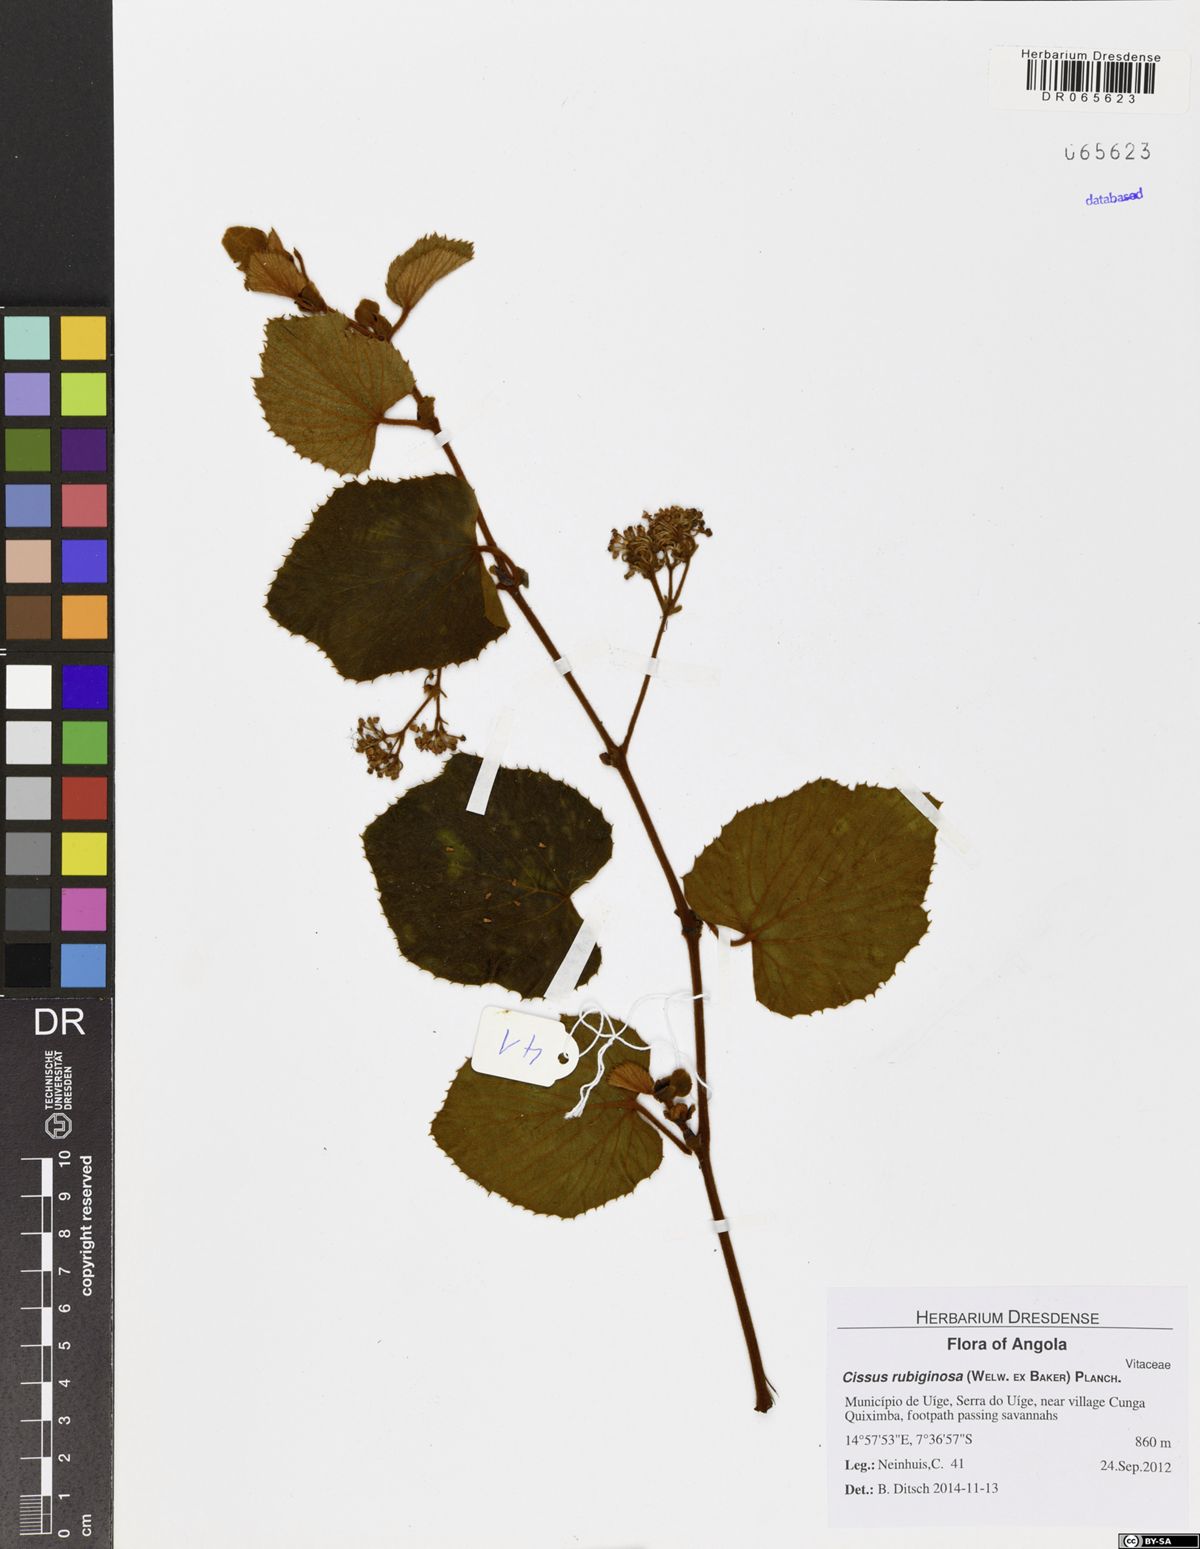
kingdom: Plantae
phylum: Tracheophyta
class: Magnoliopsida
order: Vitales
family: Vitaceae
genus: Cissus
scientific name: Cissus rubiginosa
